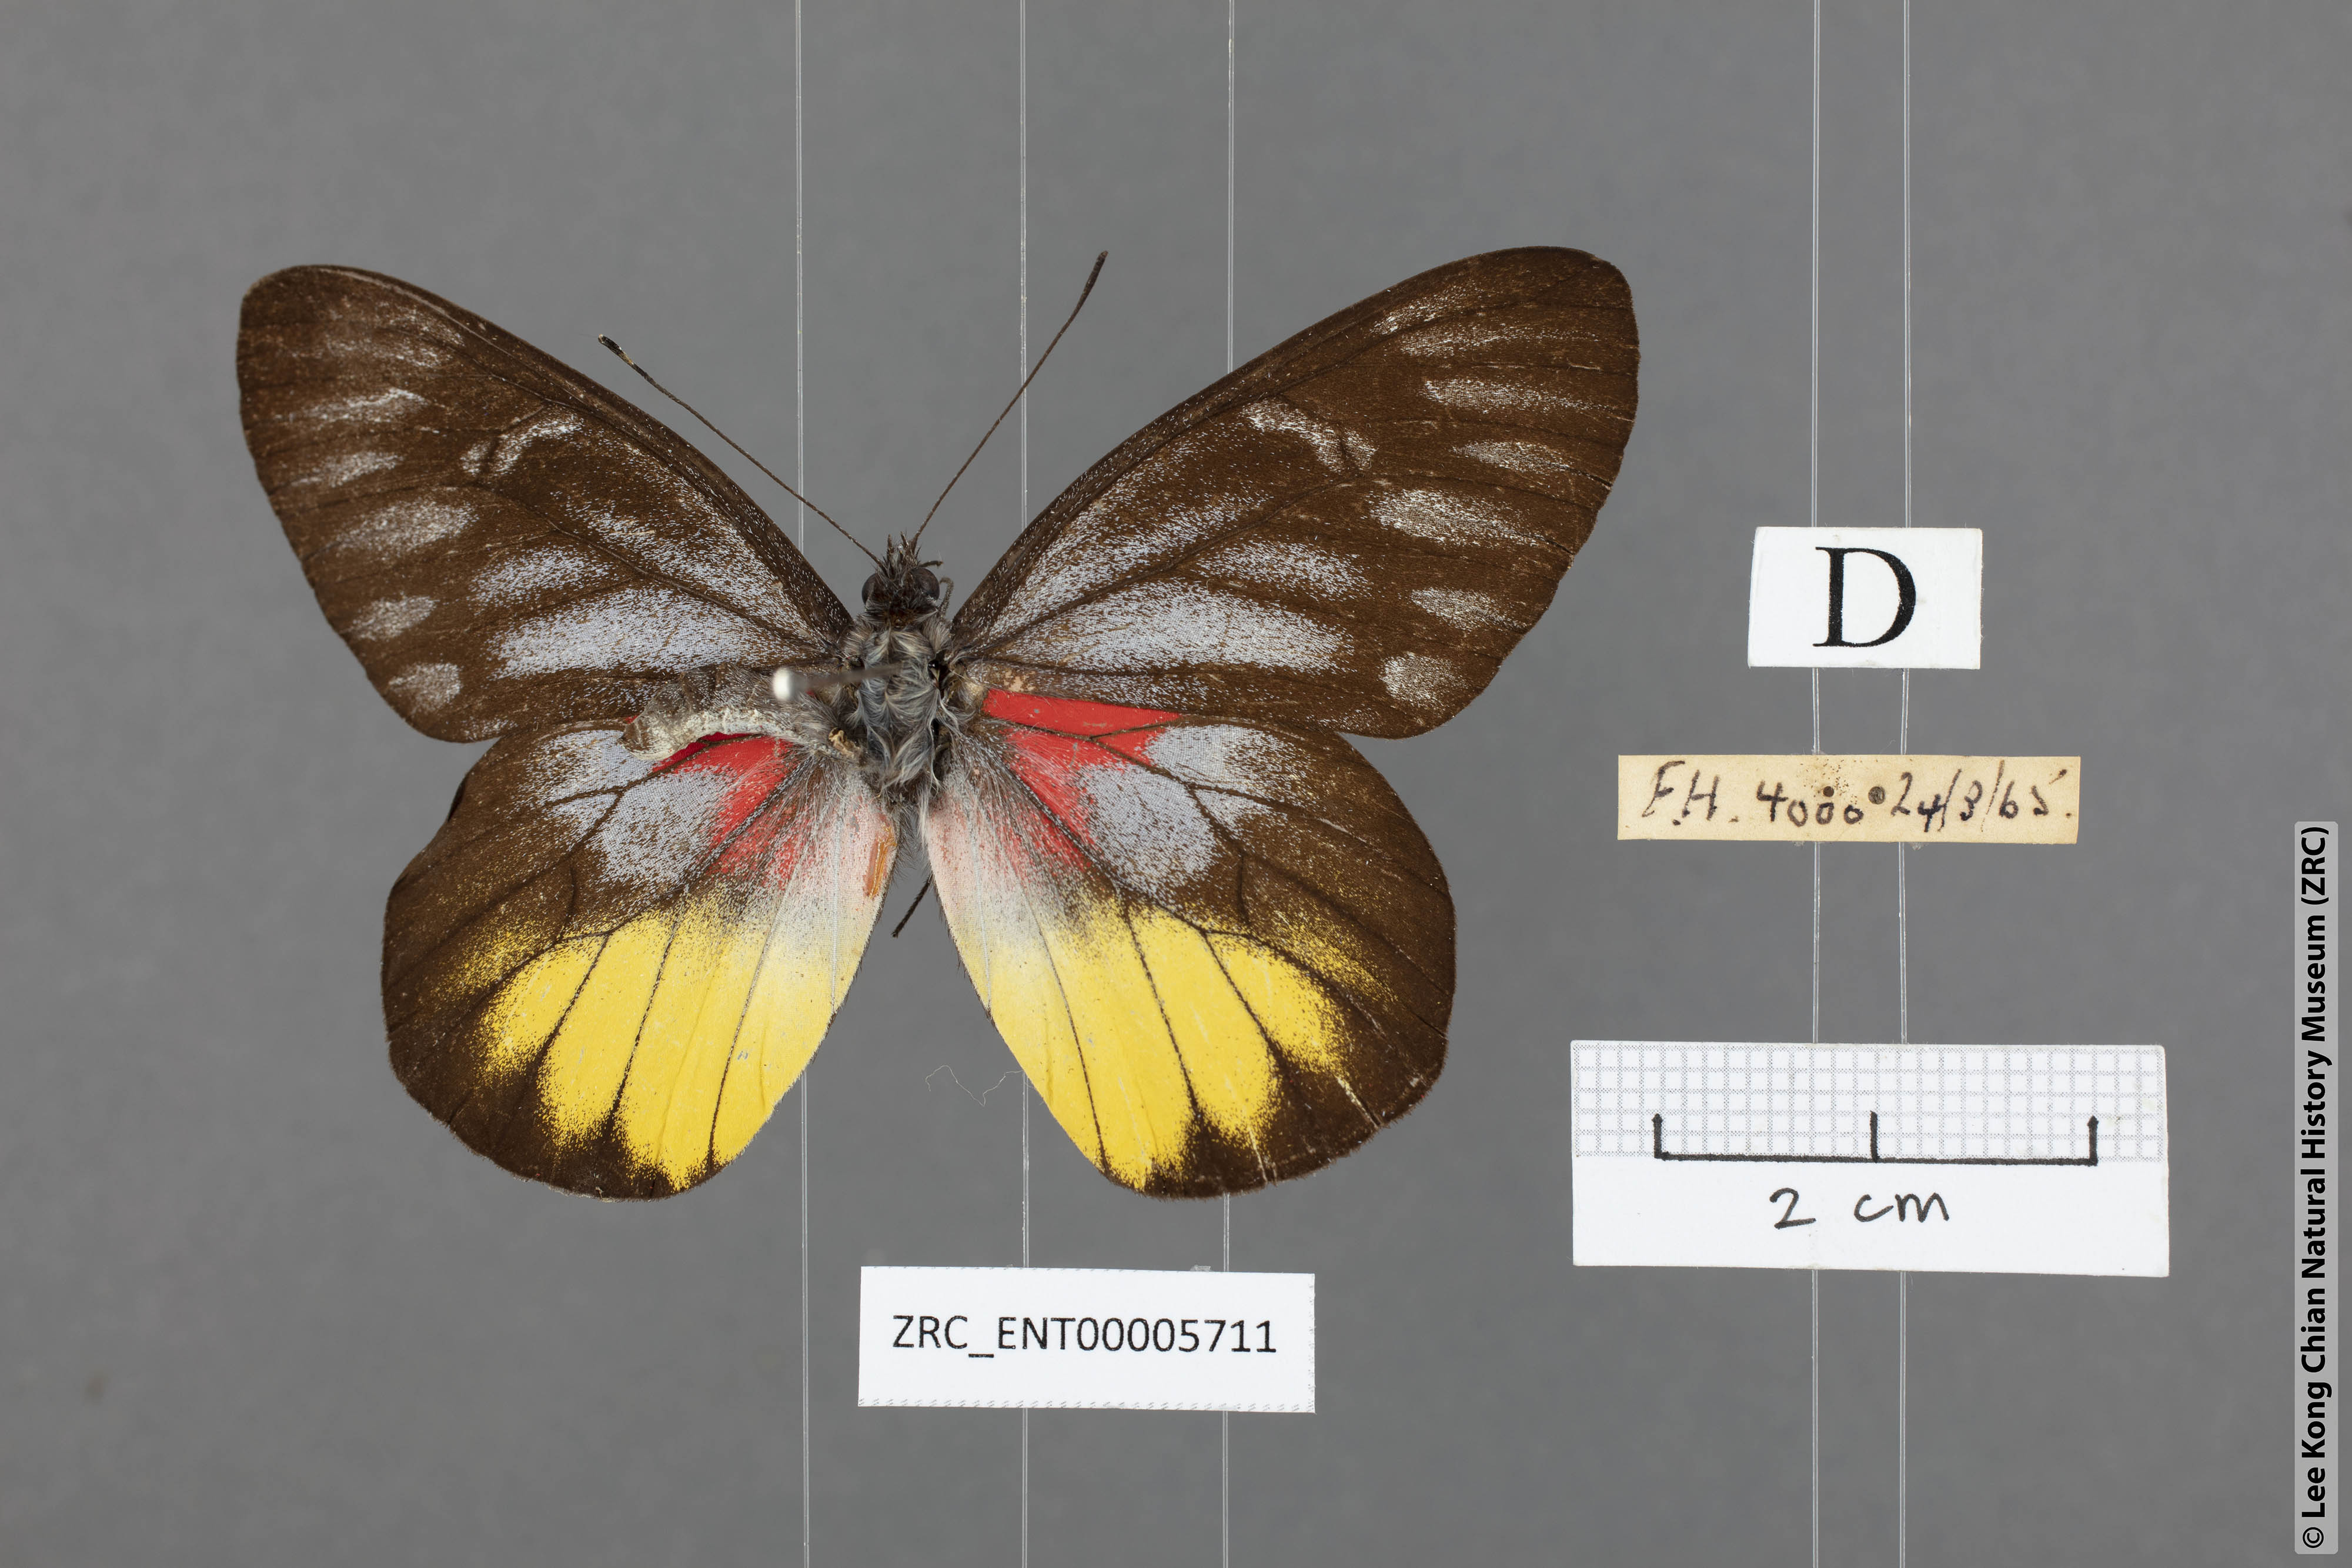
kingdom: Animalia
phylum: Arthropoda
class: Insecta
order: Lepidoptera
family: Pieridae
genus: Delias
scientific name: Delias ninus
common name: Malayan jezebel
